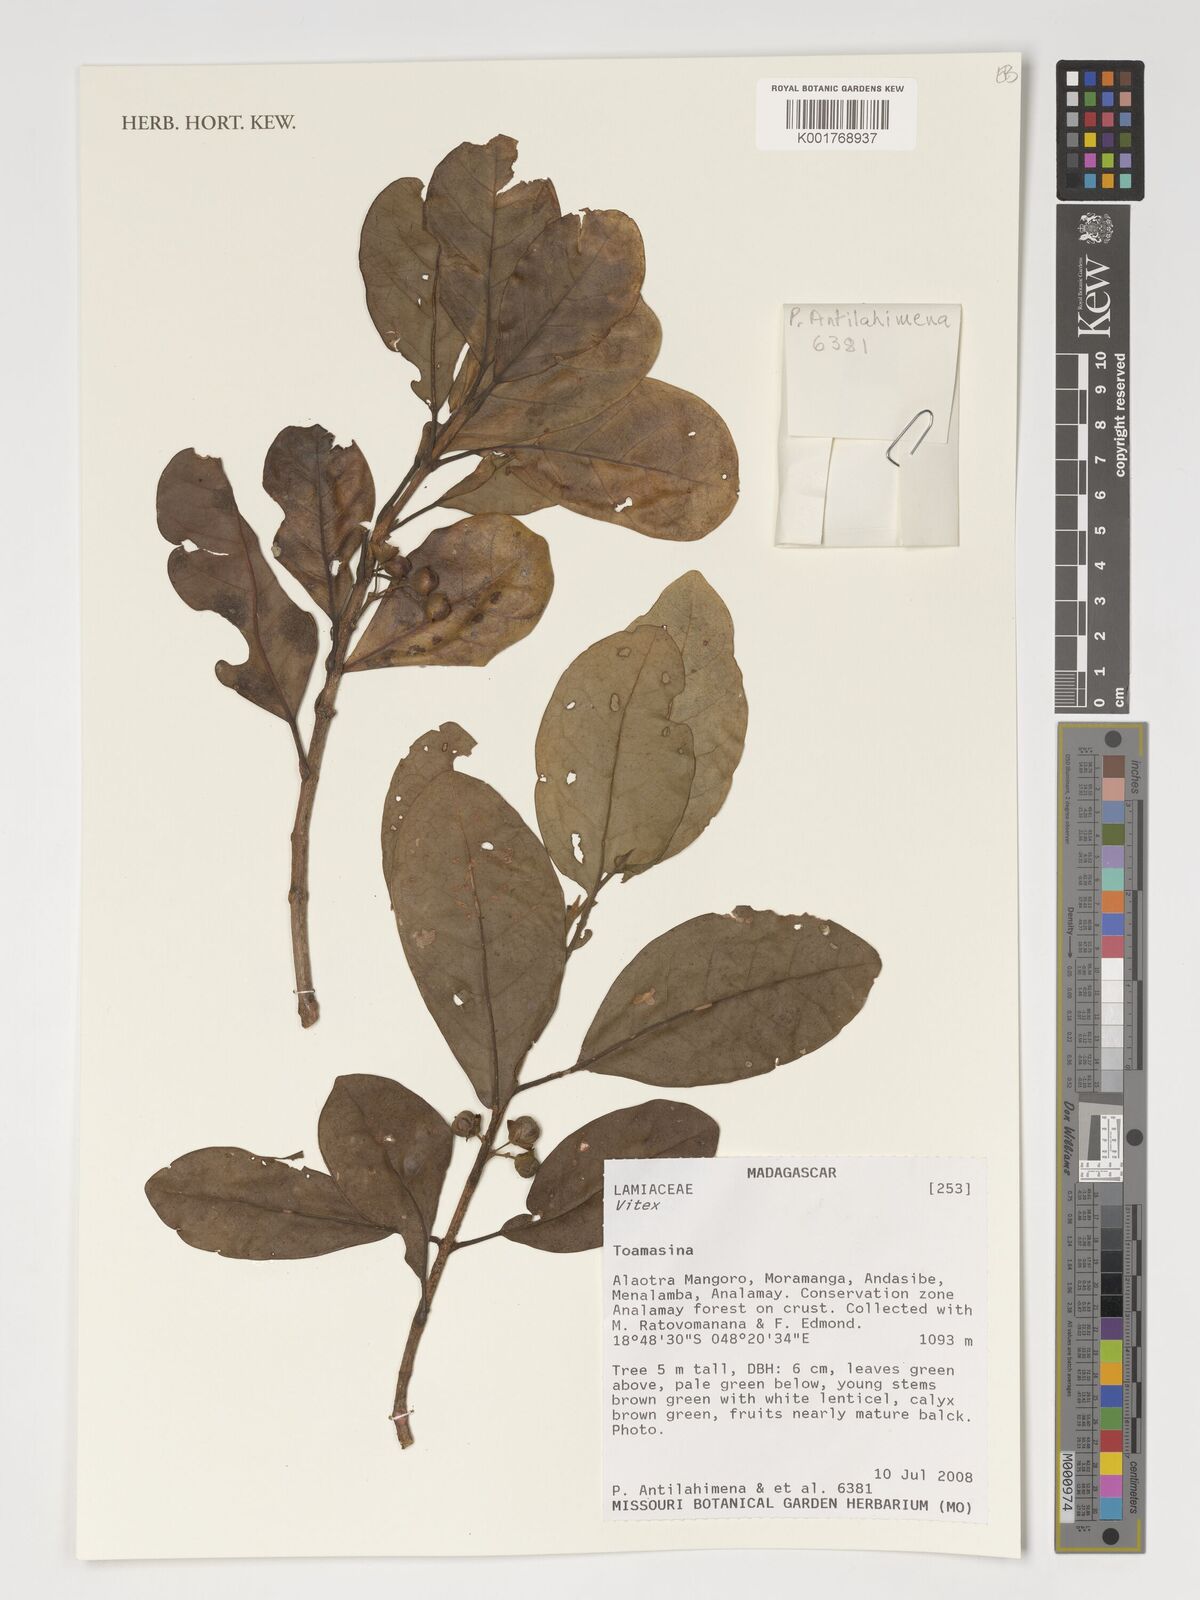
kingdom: Plantae
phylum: Tracheophyta
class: Magnoliopsida
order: Lamiales
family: Lamiaceae
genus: Vitex
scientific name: Vitex
